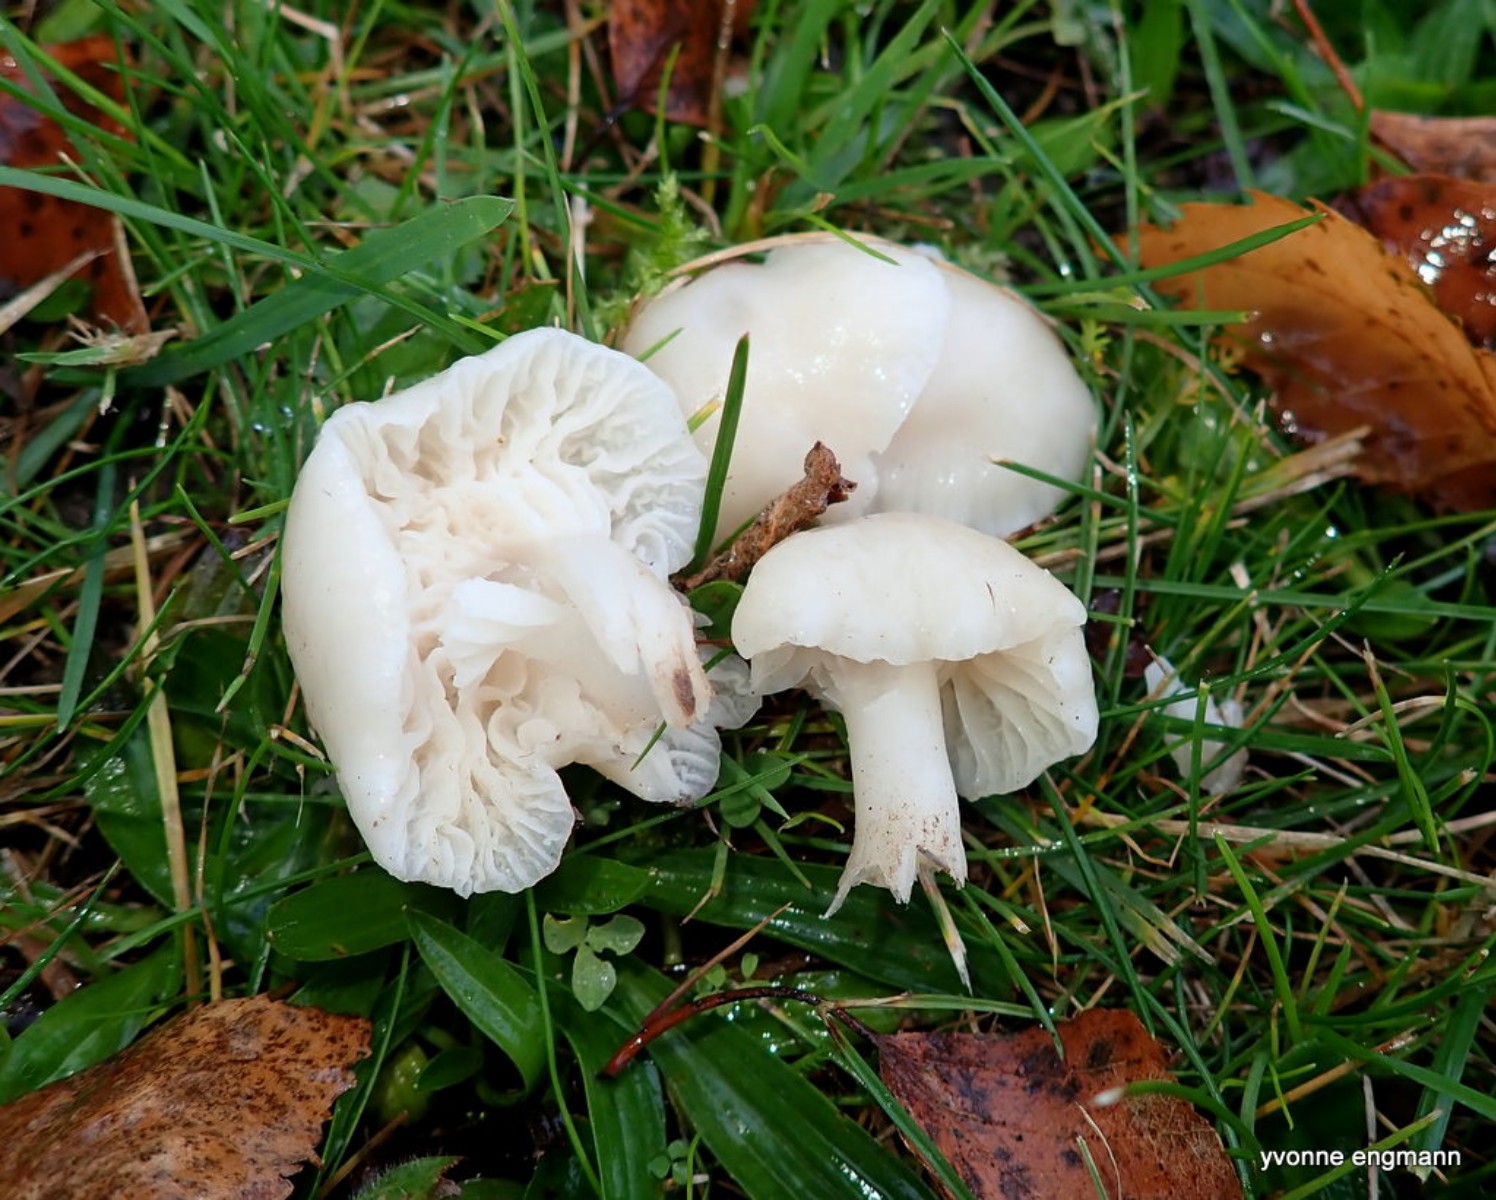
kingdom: Fungi
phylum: Basidiomycota
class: Agaricomycetes
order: Agaricales
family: Hygrophoraceae
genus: Cuphophyllus
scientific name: Cuphophyllus virgineus
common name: snehvid vokshat
